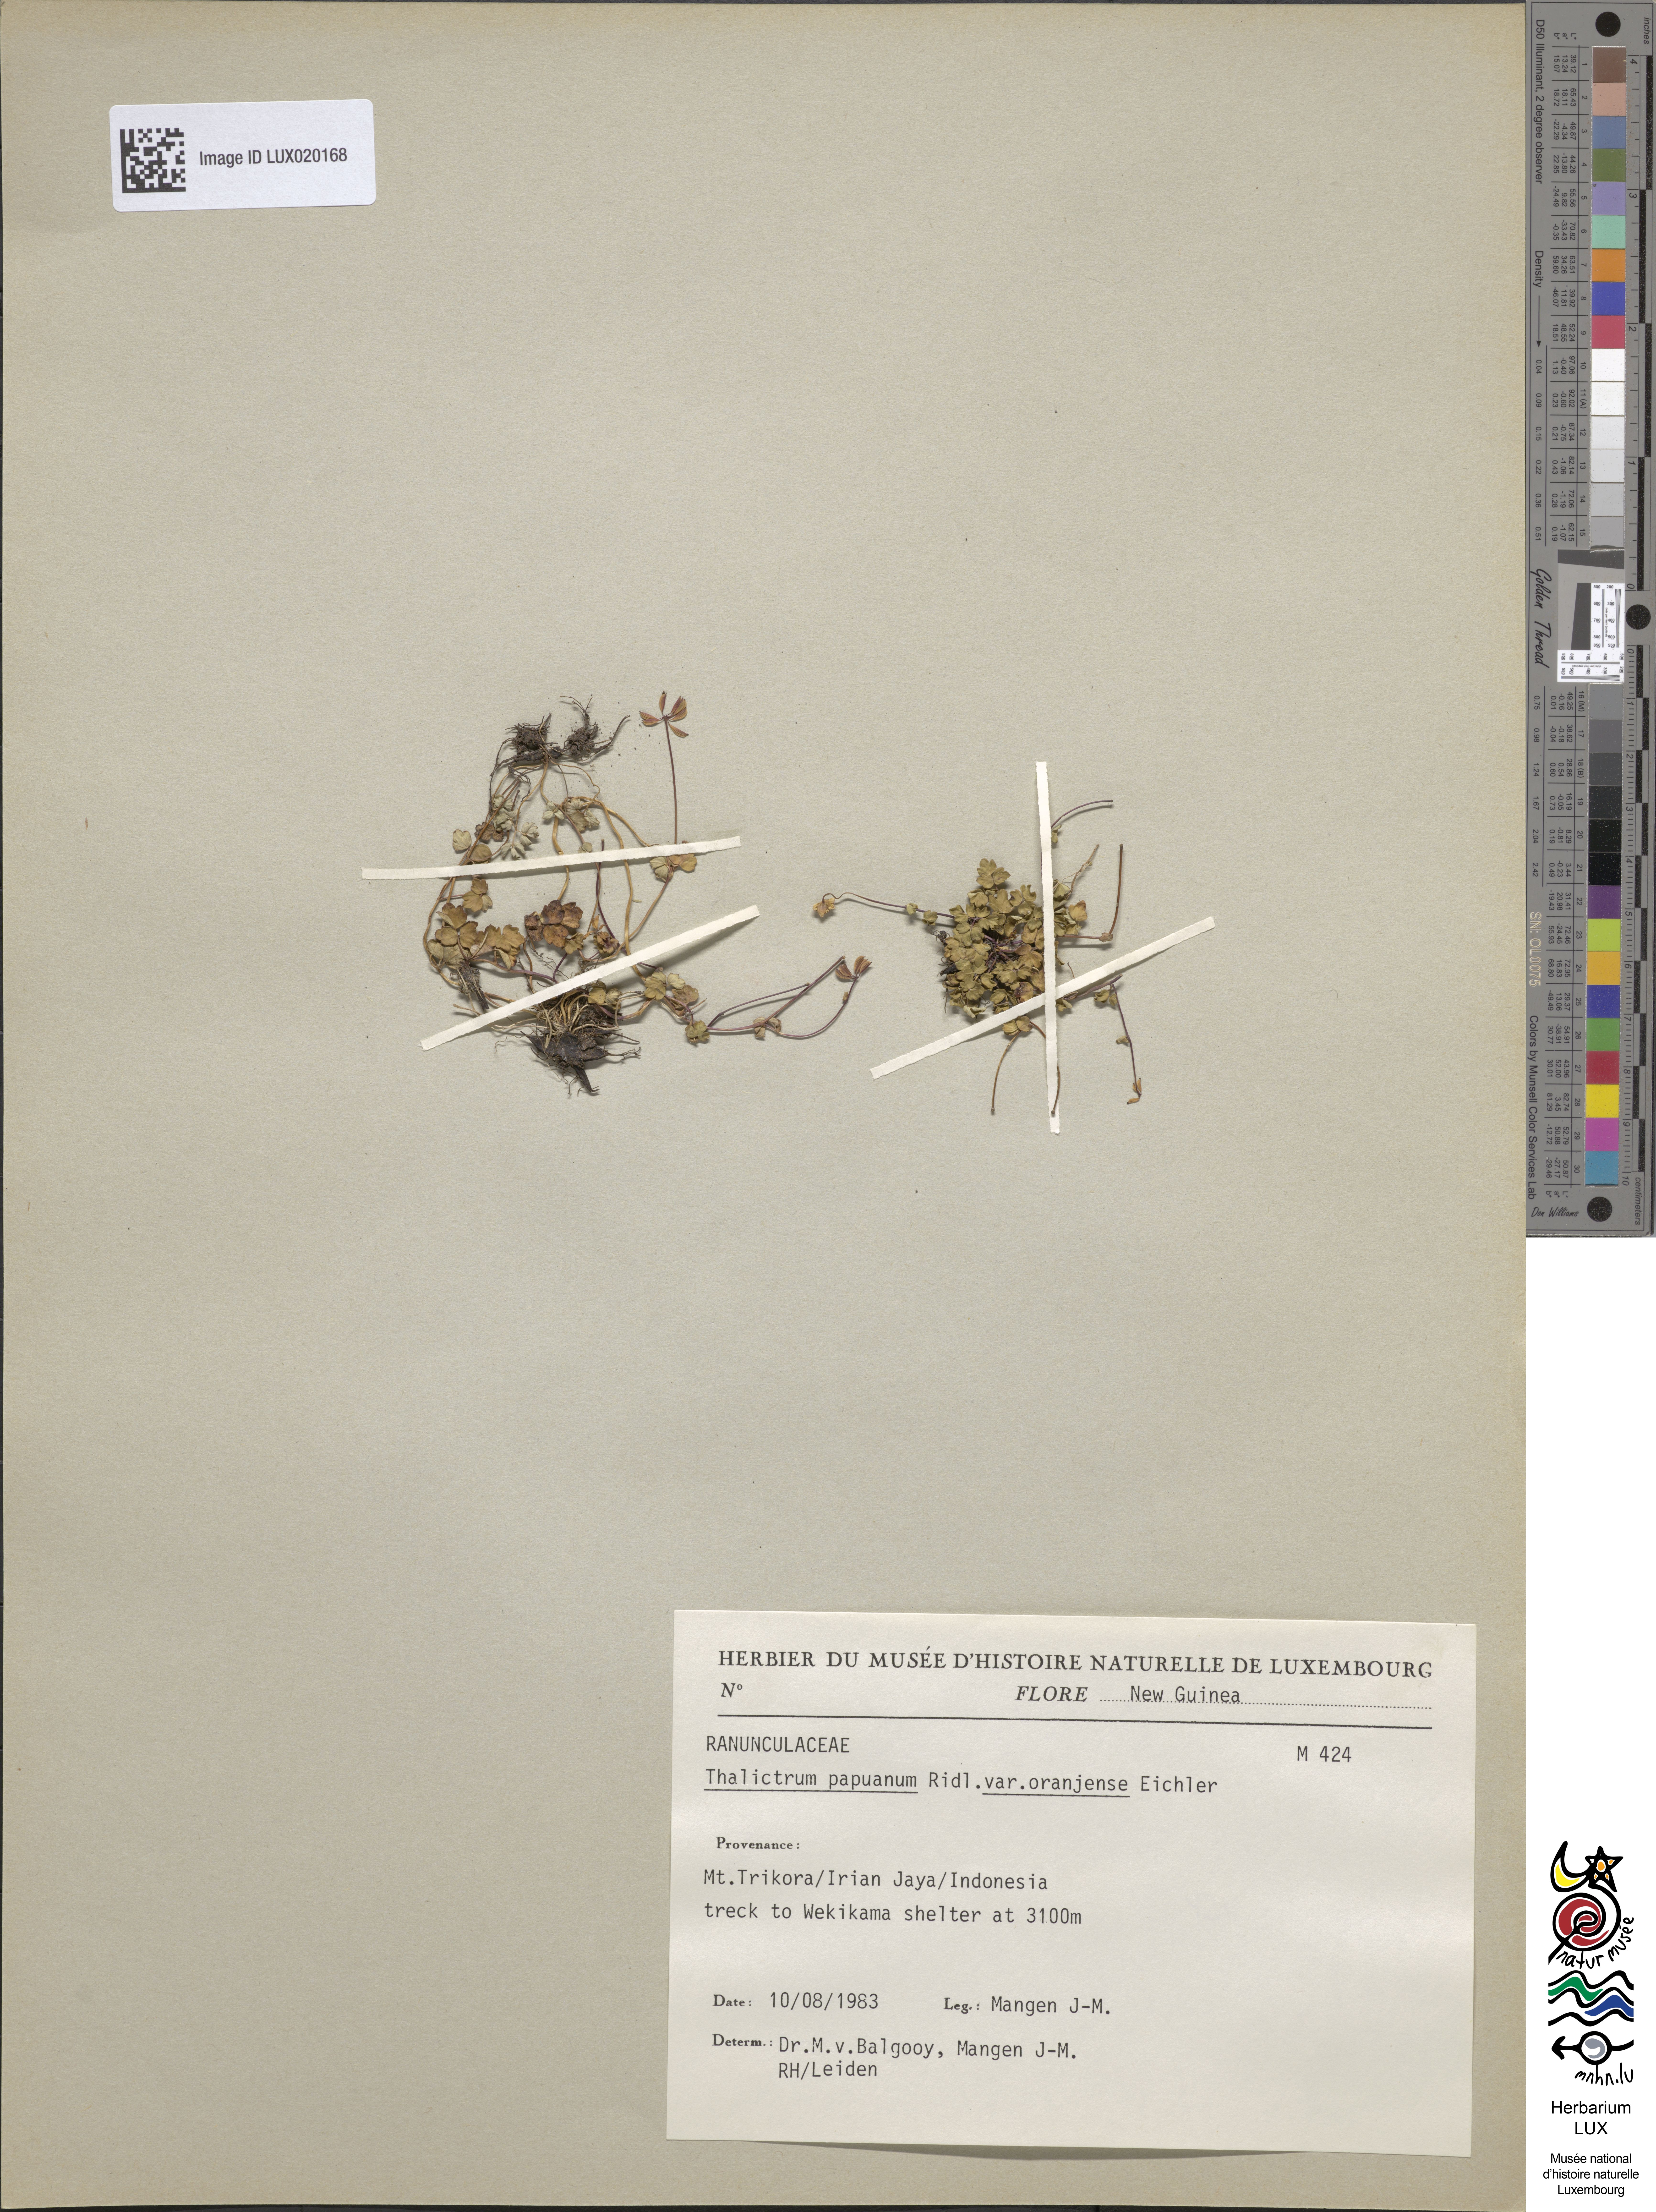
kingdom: Plantae
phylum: Tracheophyta
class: Magnoliopsida
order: Ranunculales
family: Ranunculaceae
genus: Thalictrum
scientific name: Thalictrum papuanum
